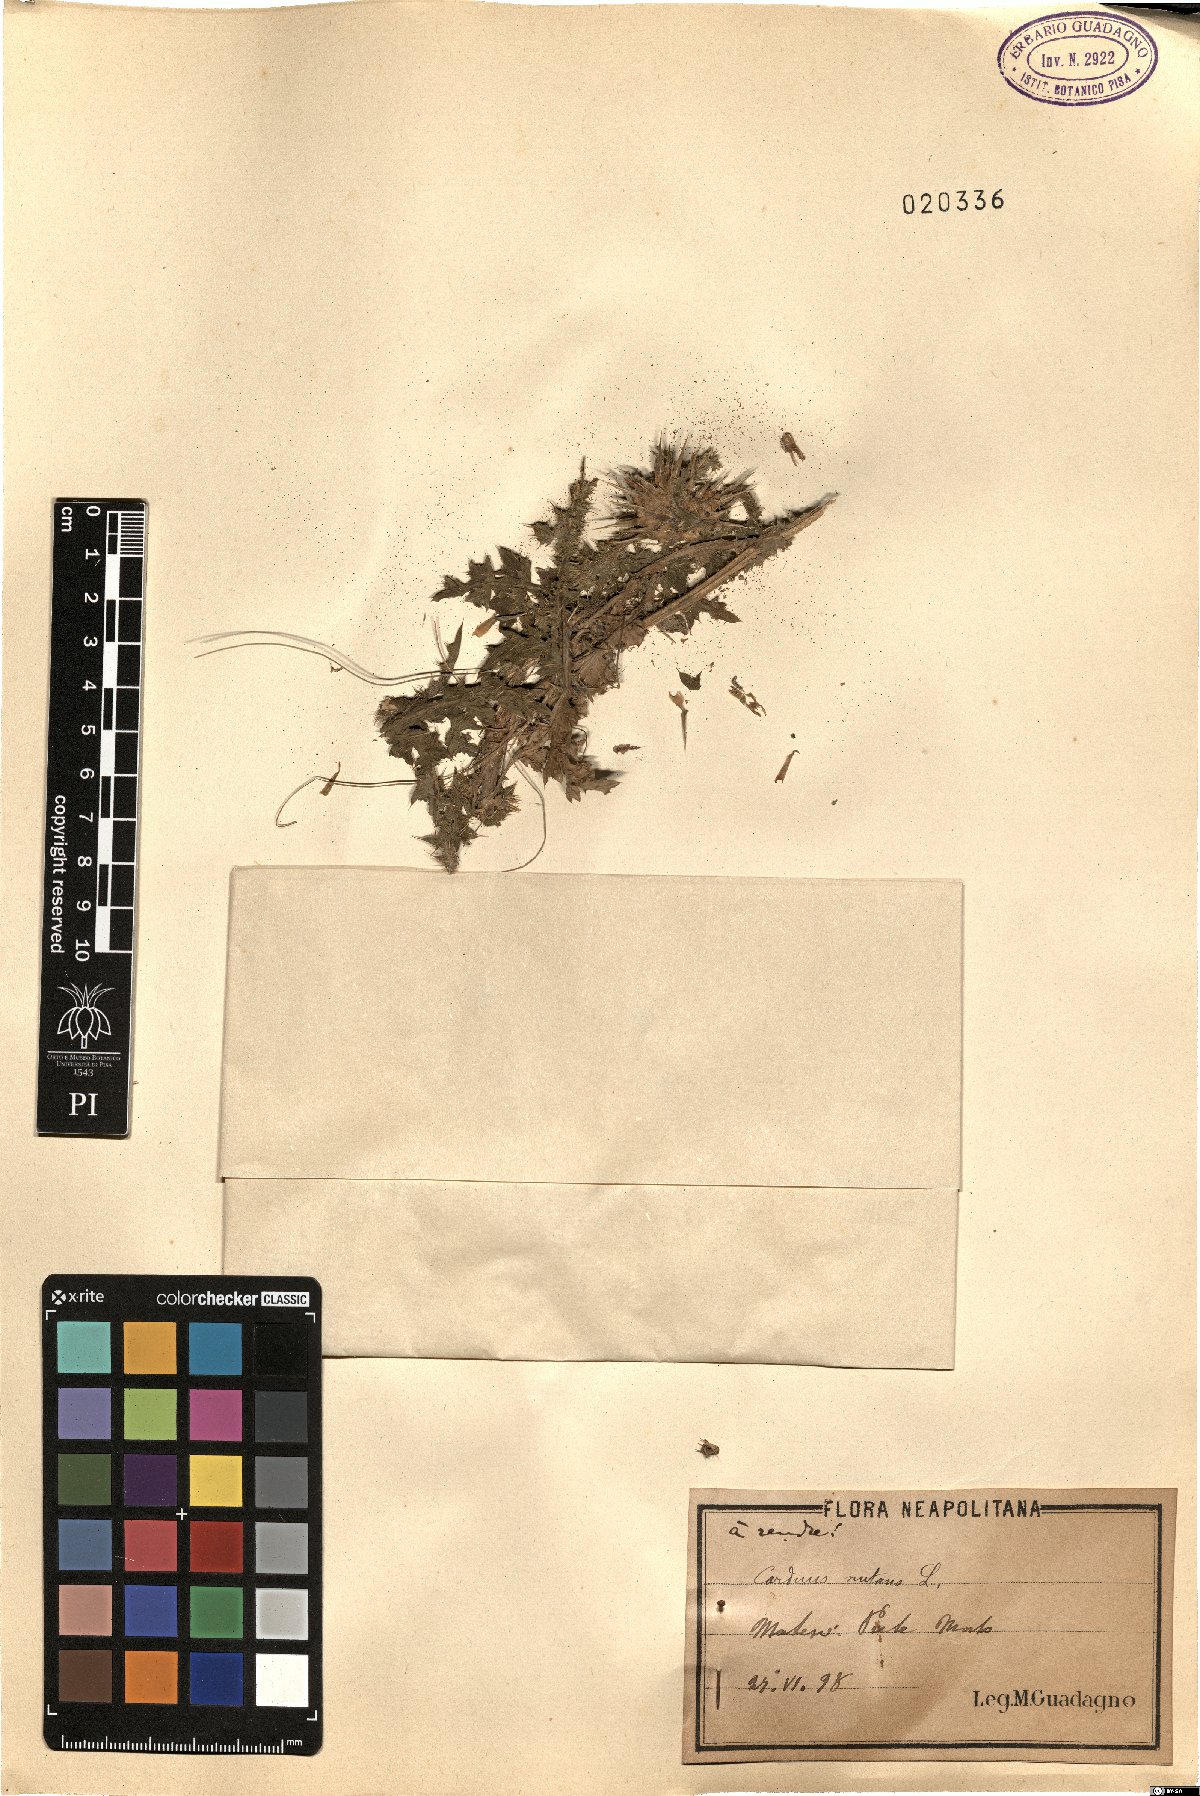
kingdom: Plantae
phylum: Tracheophyta
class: Magnoliopsida
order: Asterales
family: Asteraceae
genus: Carduus
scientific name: Carduus nutans
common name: Musk thistle
